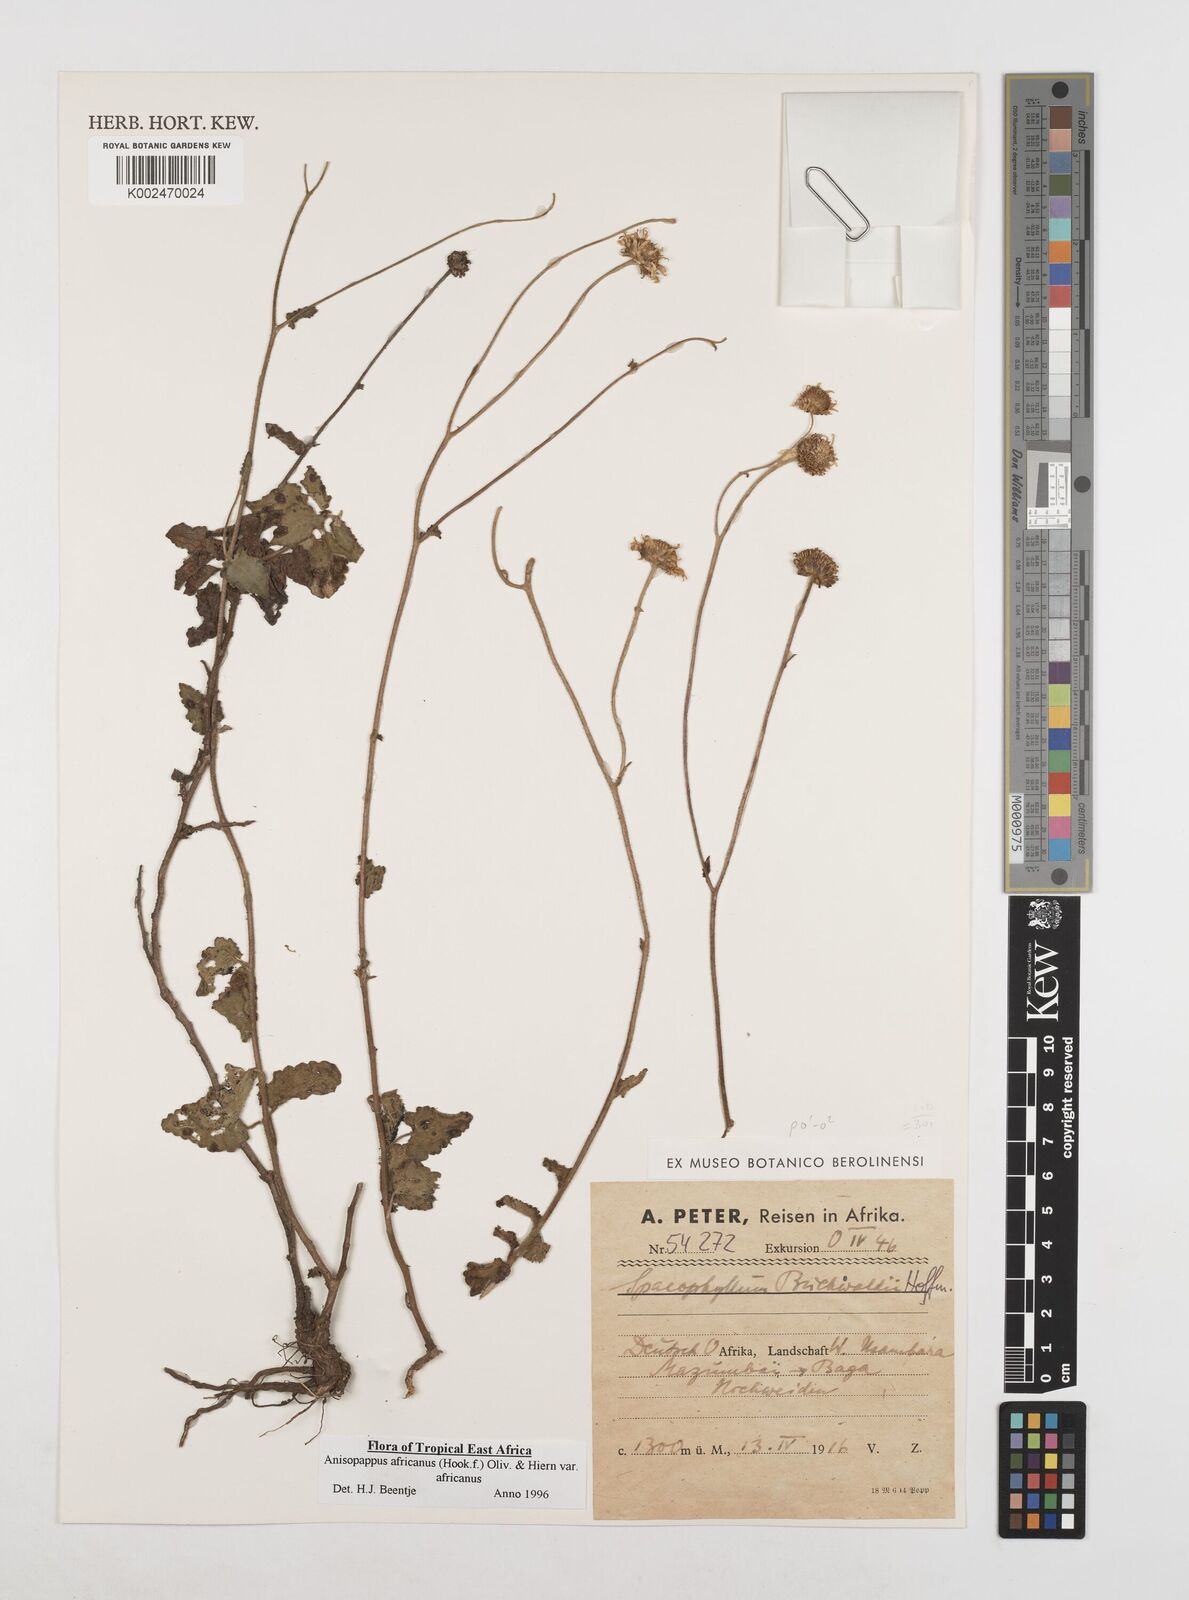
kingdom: Plantae
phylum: Tracheophyta
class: Magnoliopsida
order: Asterales
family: Asteraceae
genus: Anisopappus
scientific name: Anisopappus africanus
